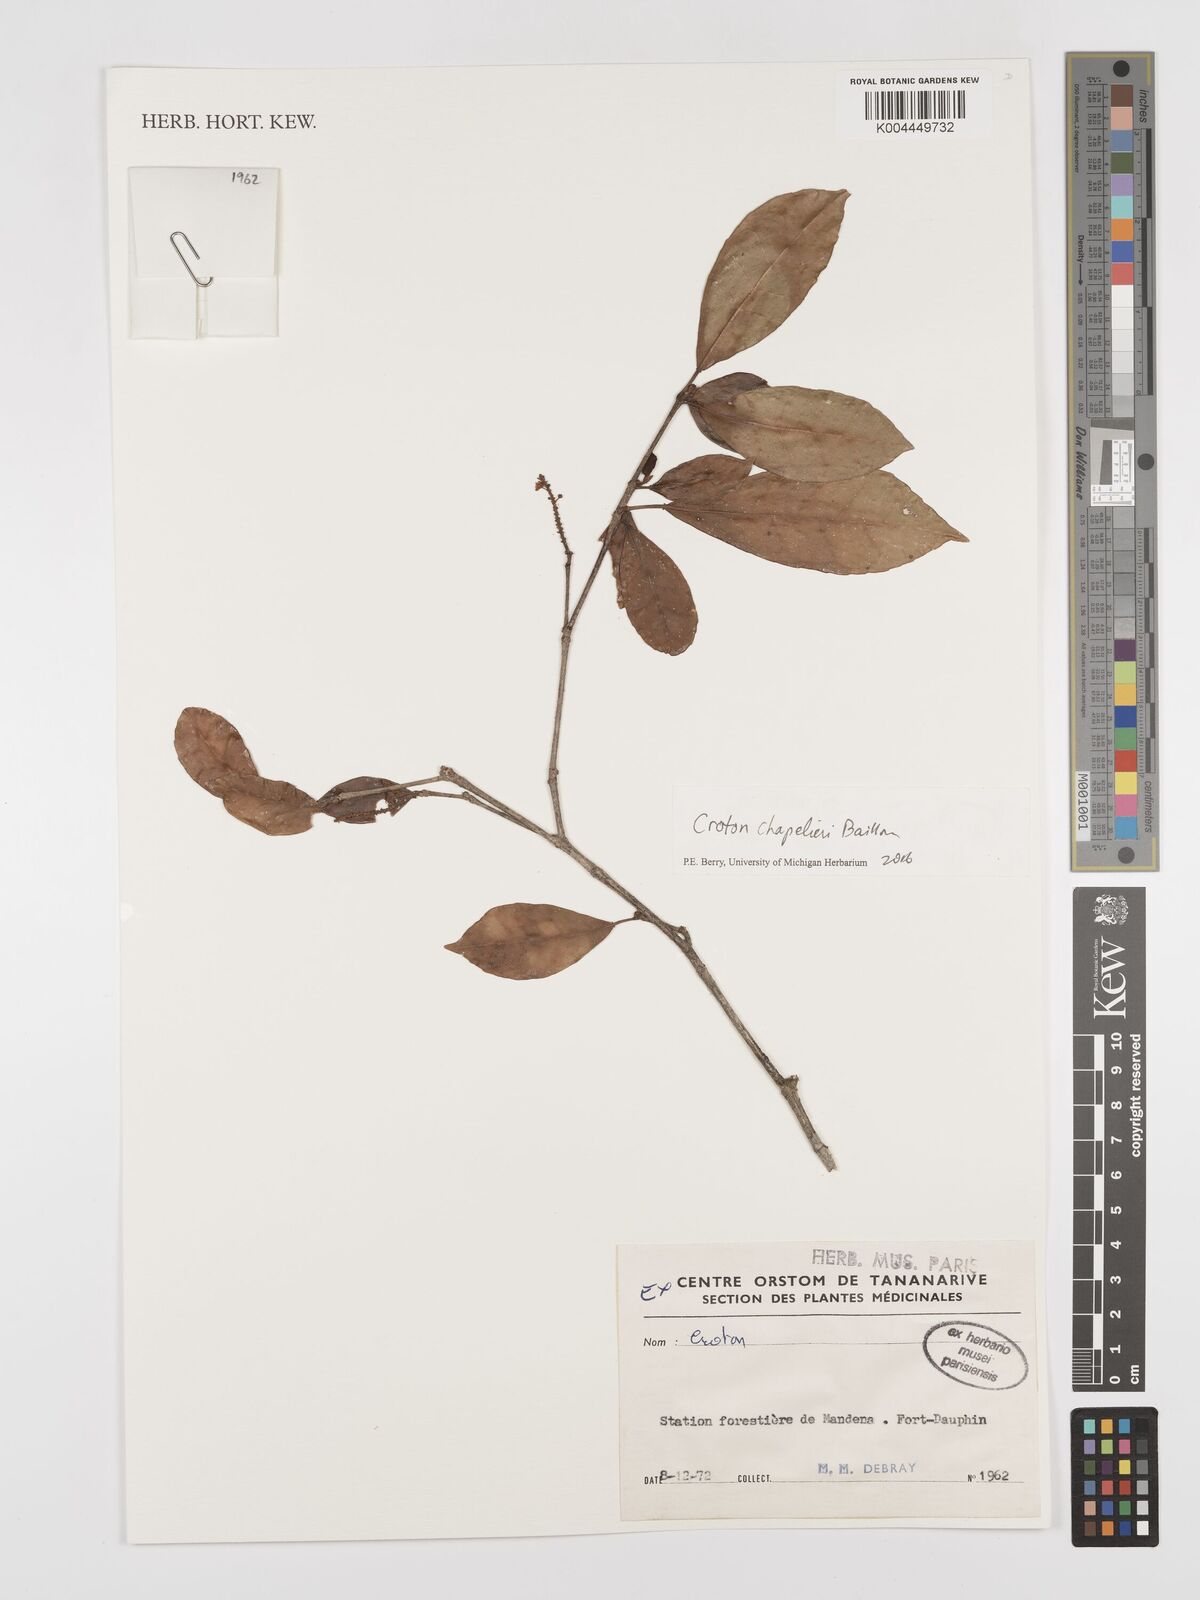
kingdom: Plantae
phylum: Tracheophyta
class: Magnoliopsida
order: Malpighiales
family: Euphorbiaceae
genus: Croton
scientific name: Croton chapelieri
